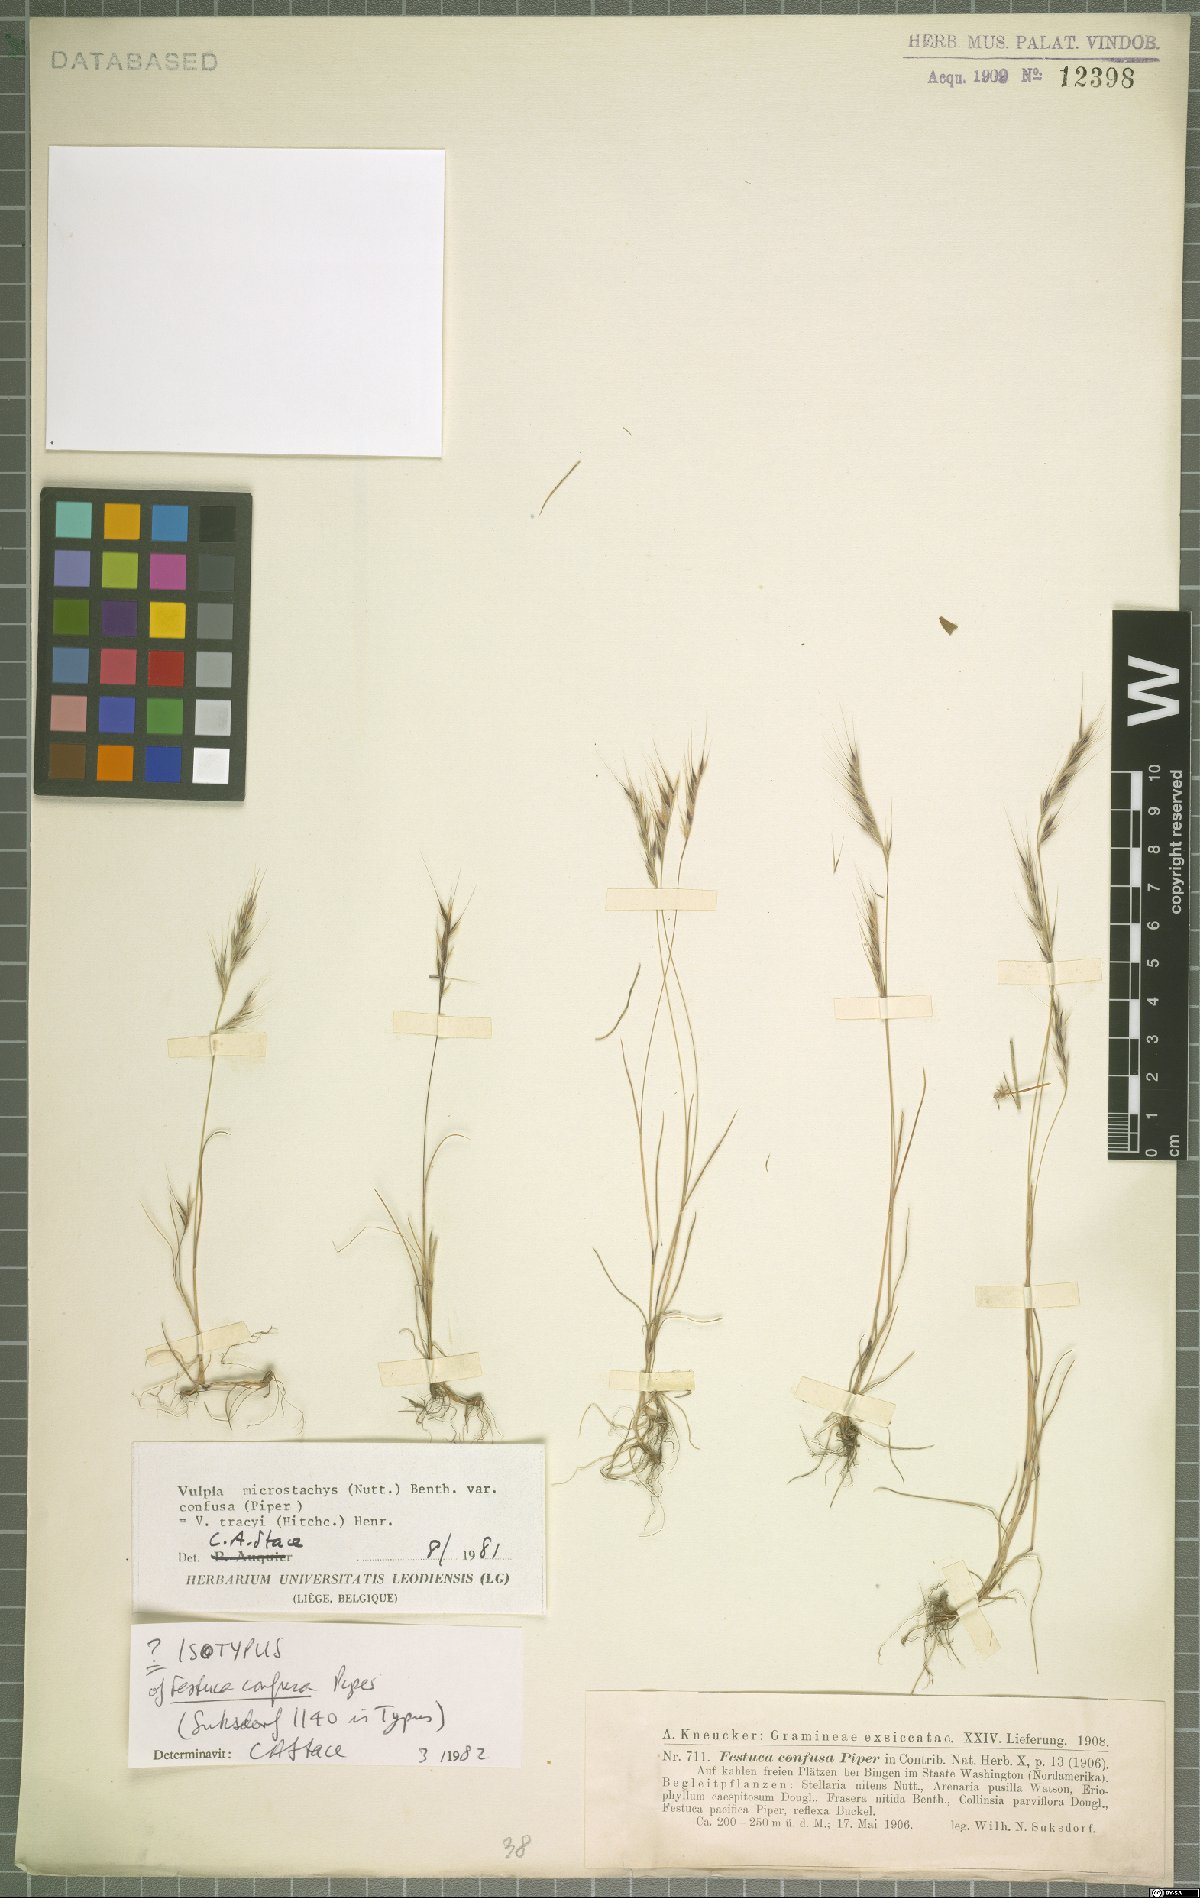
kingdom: Plantae
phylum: Tracheophyta
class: Liliopsida
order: Poales
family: Poaceae
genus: Festuca
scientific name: Festuca confusa
